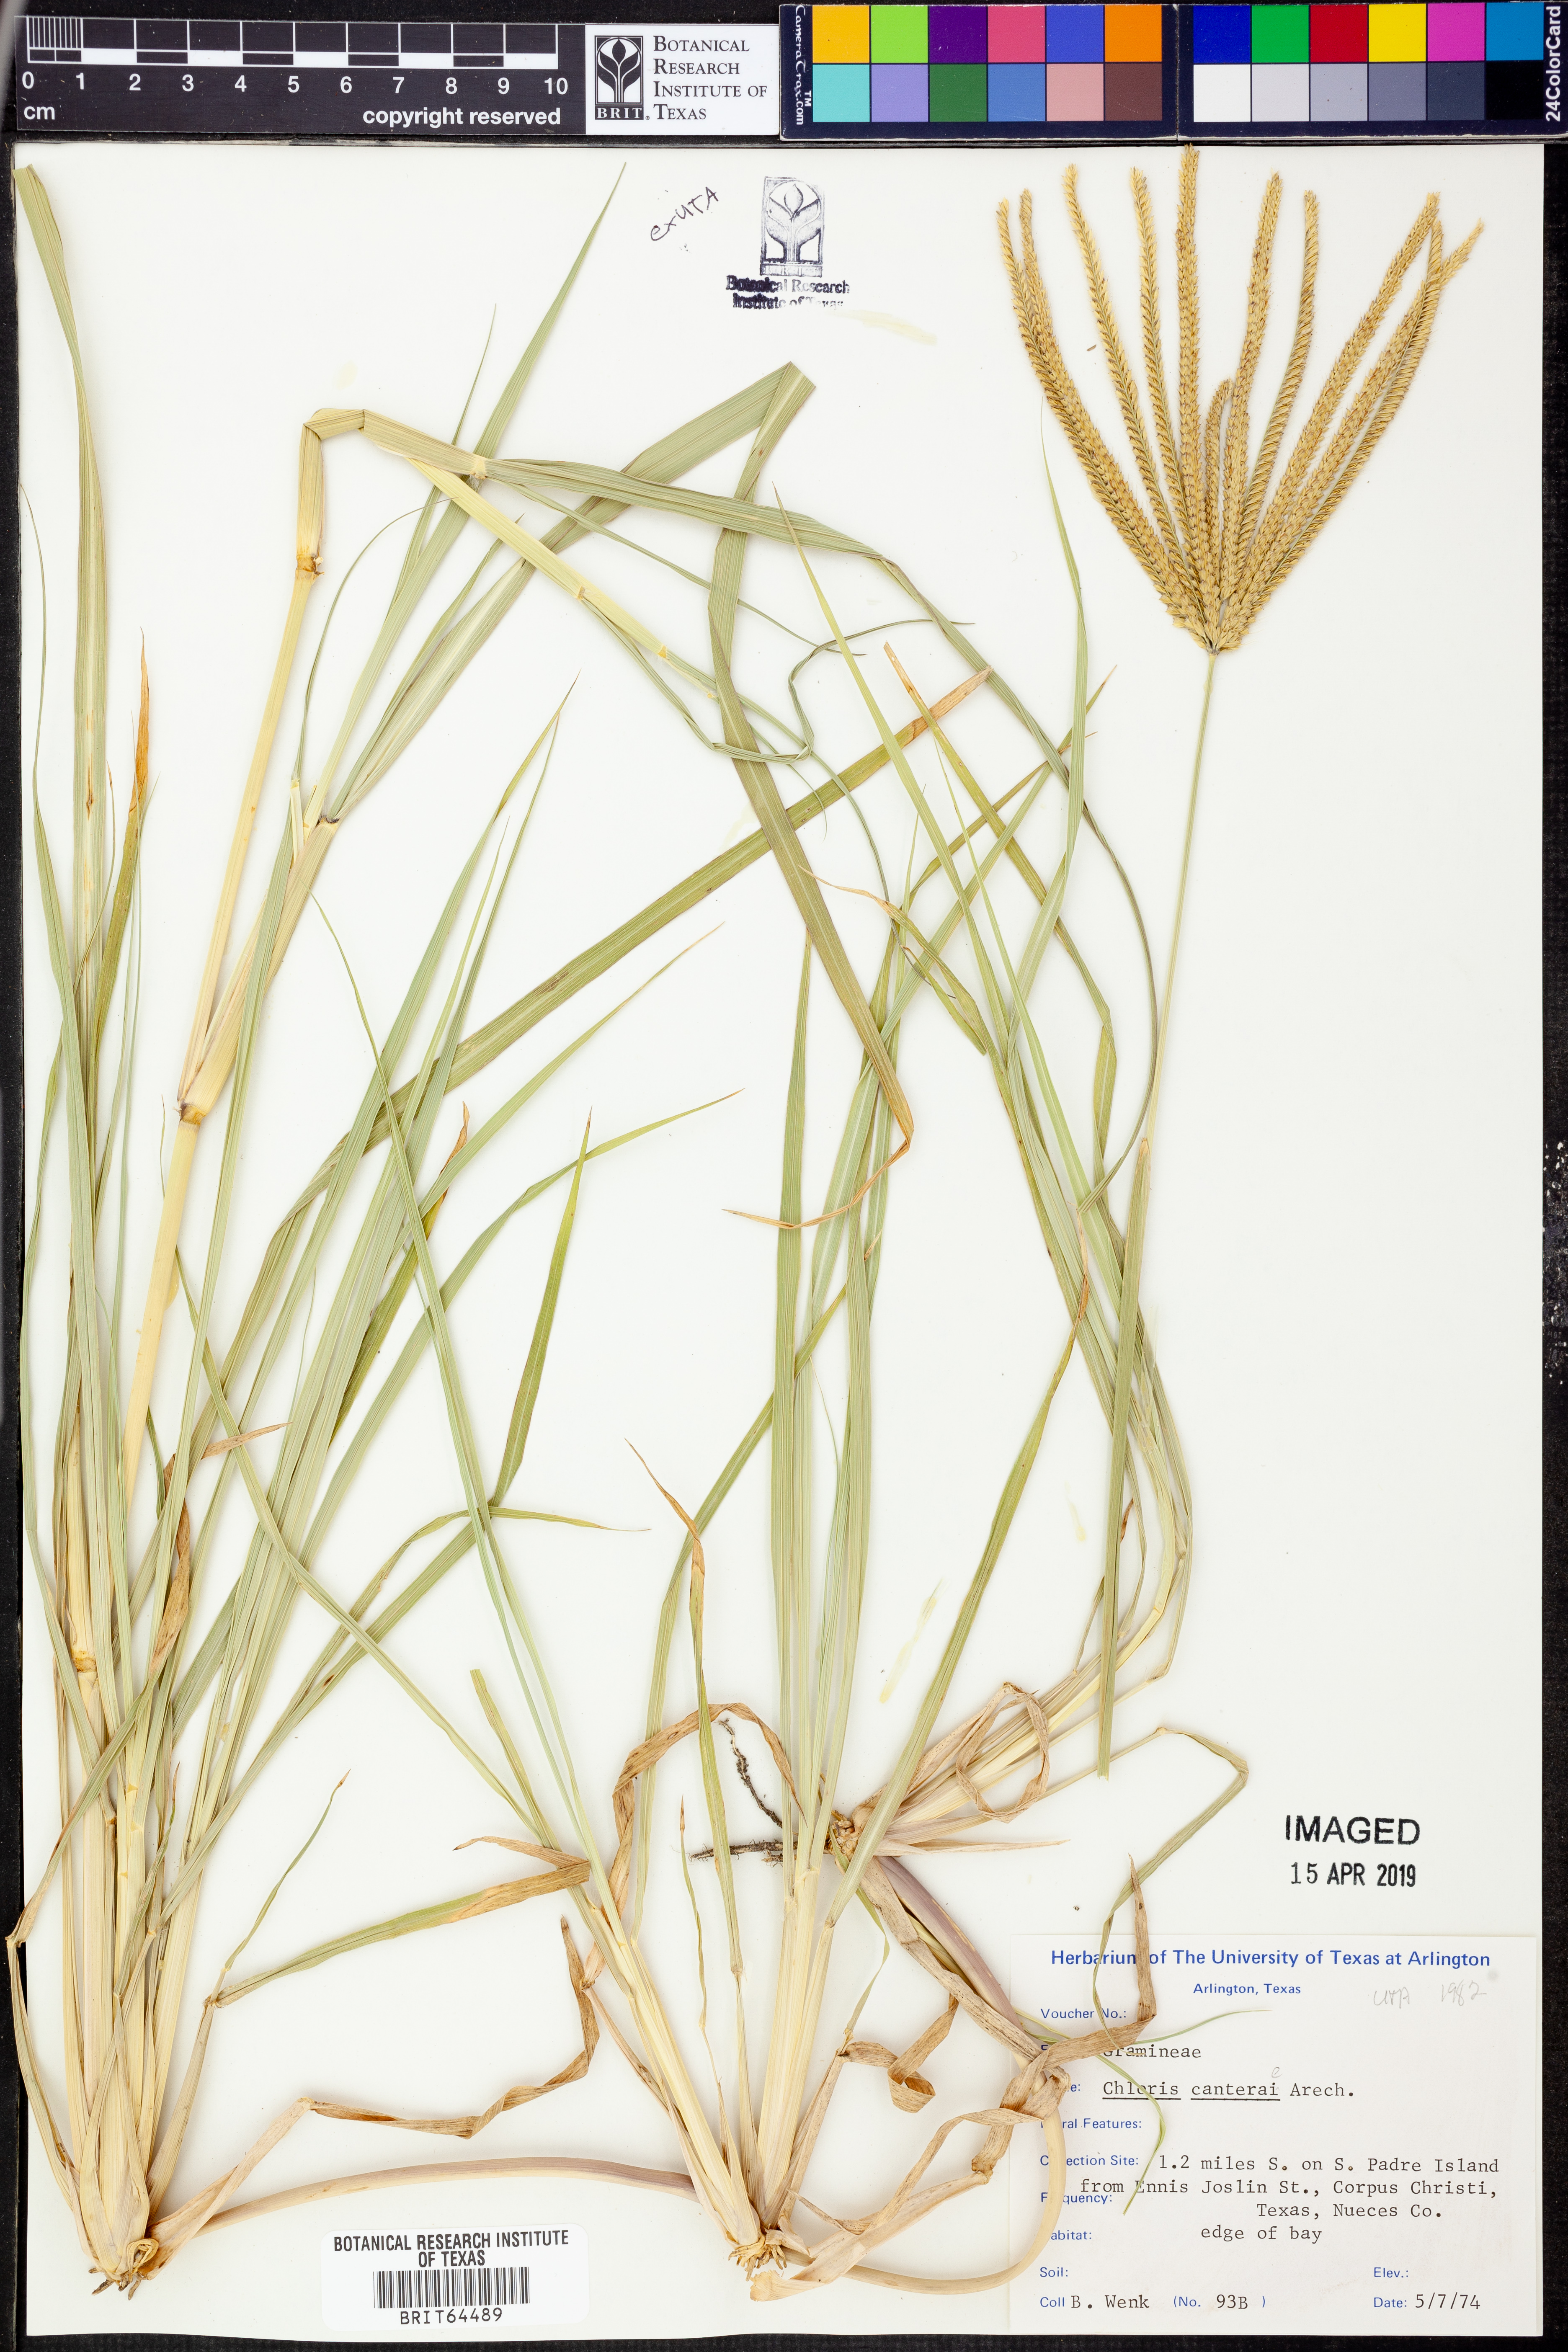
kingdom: Plantae
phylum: Tracheophyta
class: Liliopsida
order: Poales
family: Poaceae
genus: Stapfochloa
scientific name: Stapfochloa canterae
